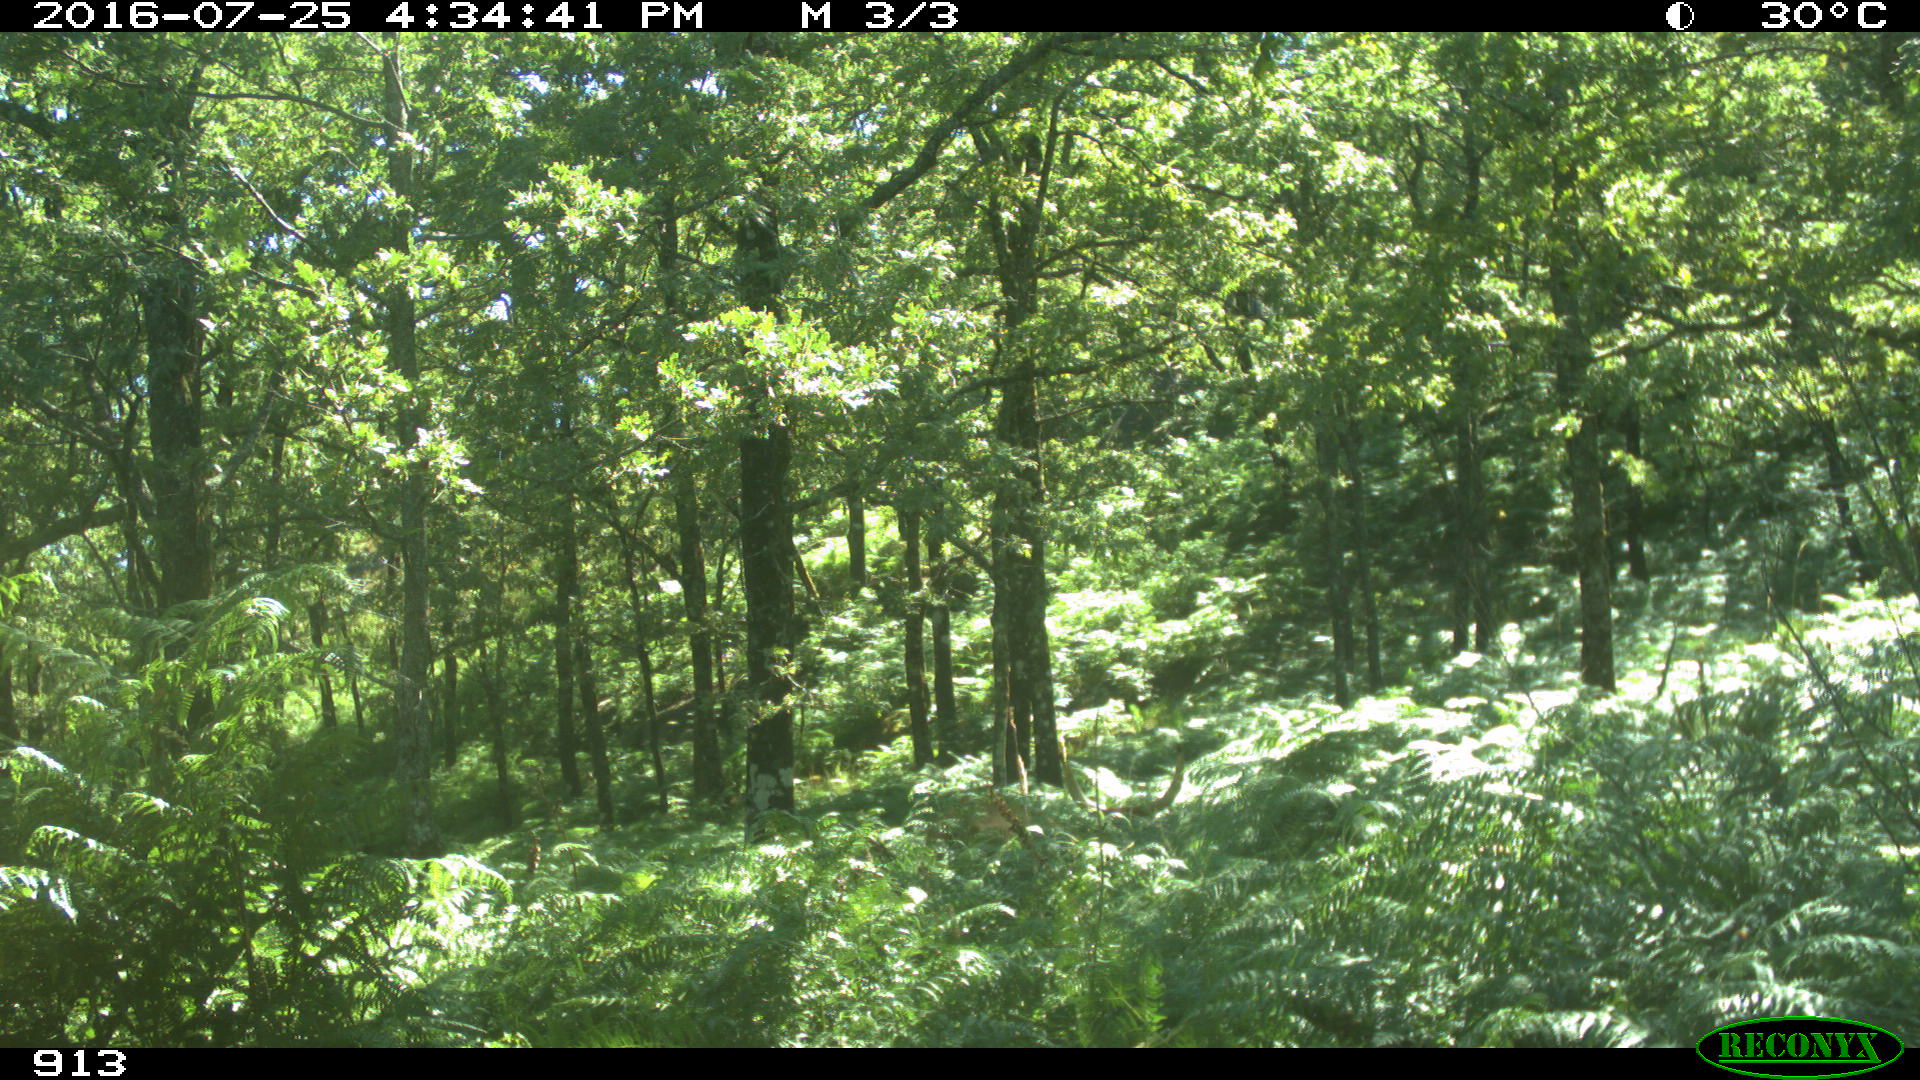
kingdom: Animalia
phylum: Chordata
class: Mammalia
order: Artiodactyla
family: Bovidae
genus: Bos
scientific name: Bos taurus
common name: Domesticated cattle
